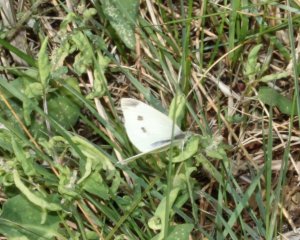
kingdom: Animalia
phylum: Arthropoda
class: Insecta
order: Lepidoptera
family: Pieridae
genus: Pieris
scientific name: Pieris rapae
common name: Cabbage White
